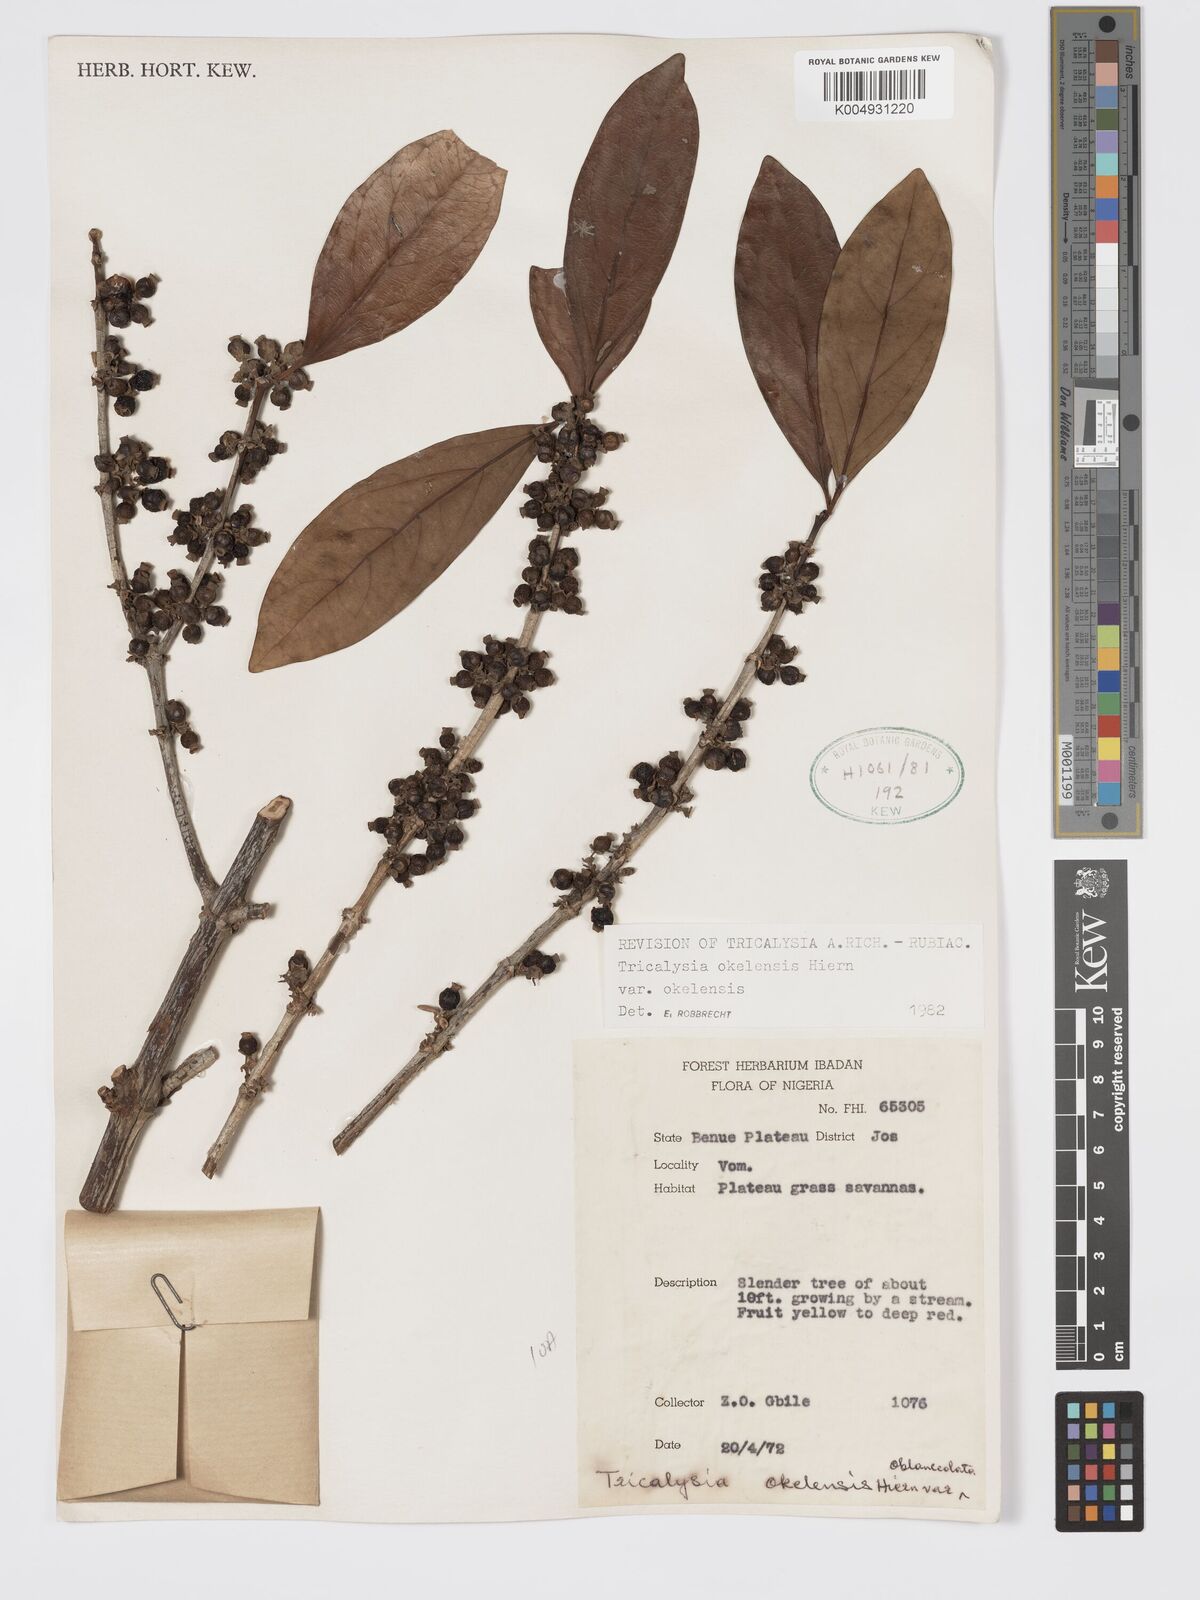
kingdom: Plantae
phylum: Tracheophyta
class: Magnoliopsida
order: Gentianales
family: Rubiaceae
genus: Tricalysia
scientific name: Tricalysia okelensis
